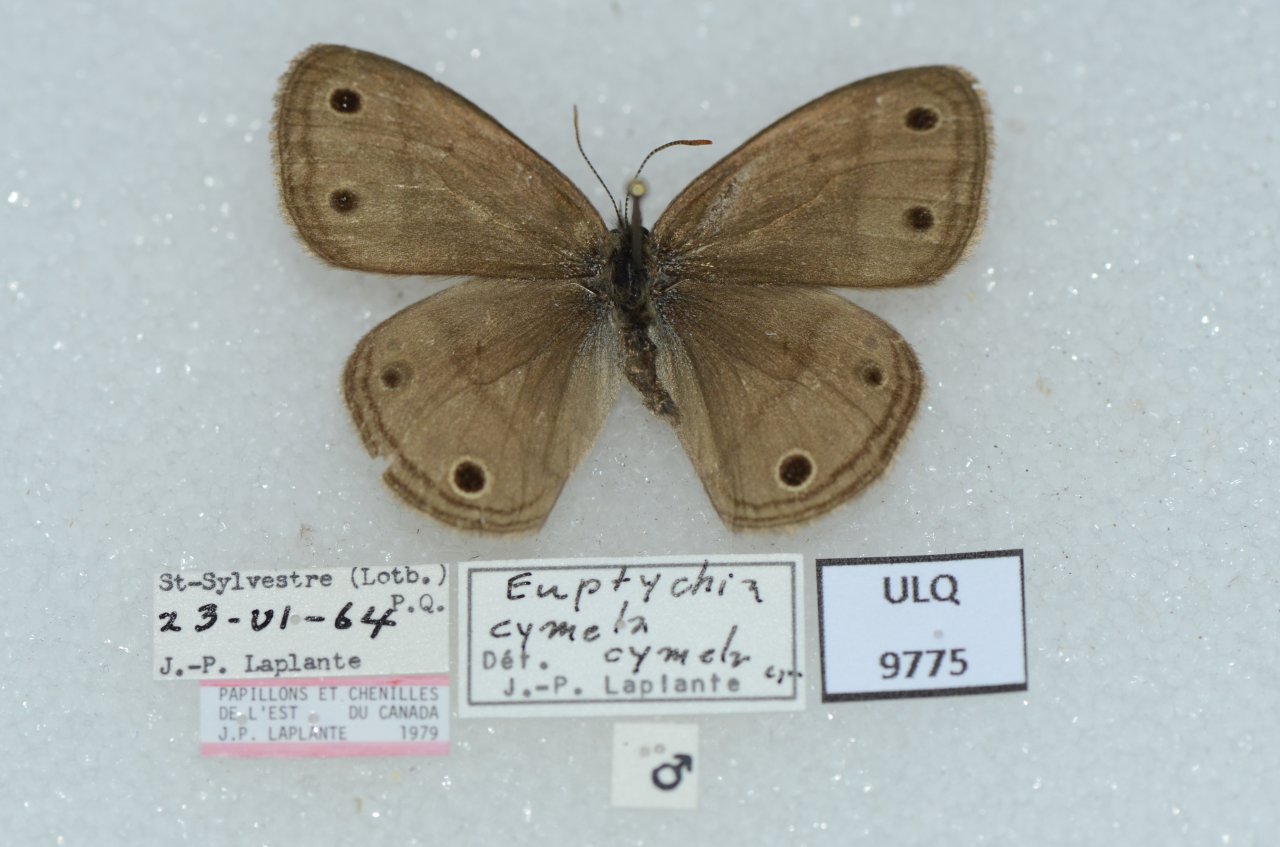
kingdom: Animalia
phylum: Arthropoda
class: Insecta
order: Lepidoptera
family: Nymphalidae
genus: Euptychia
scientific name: Euptychia cymela
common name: Little Wood Satyr
